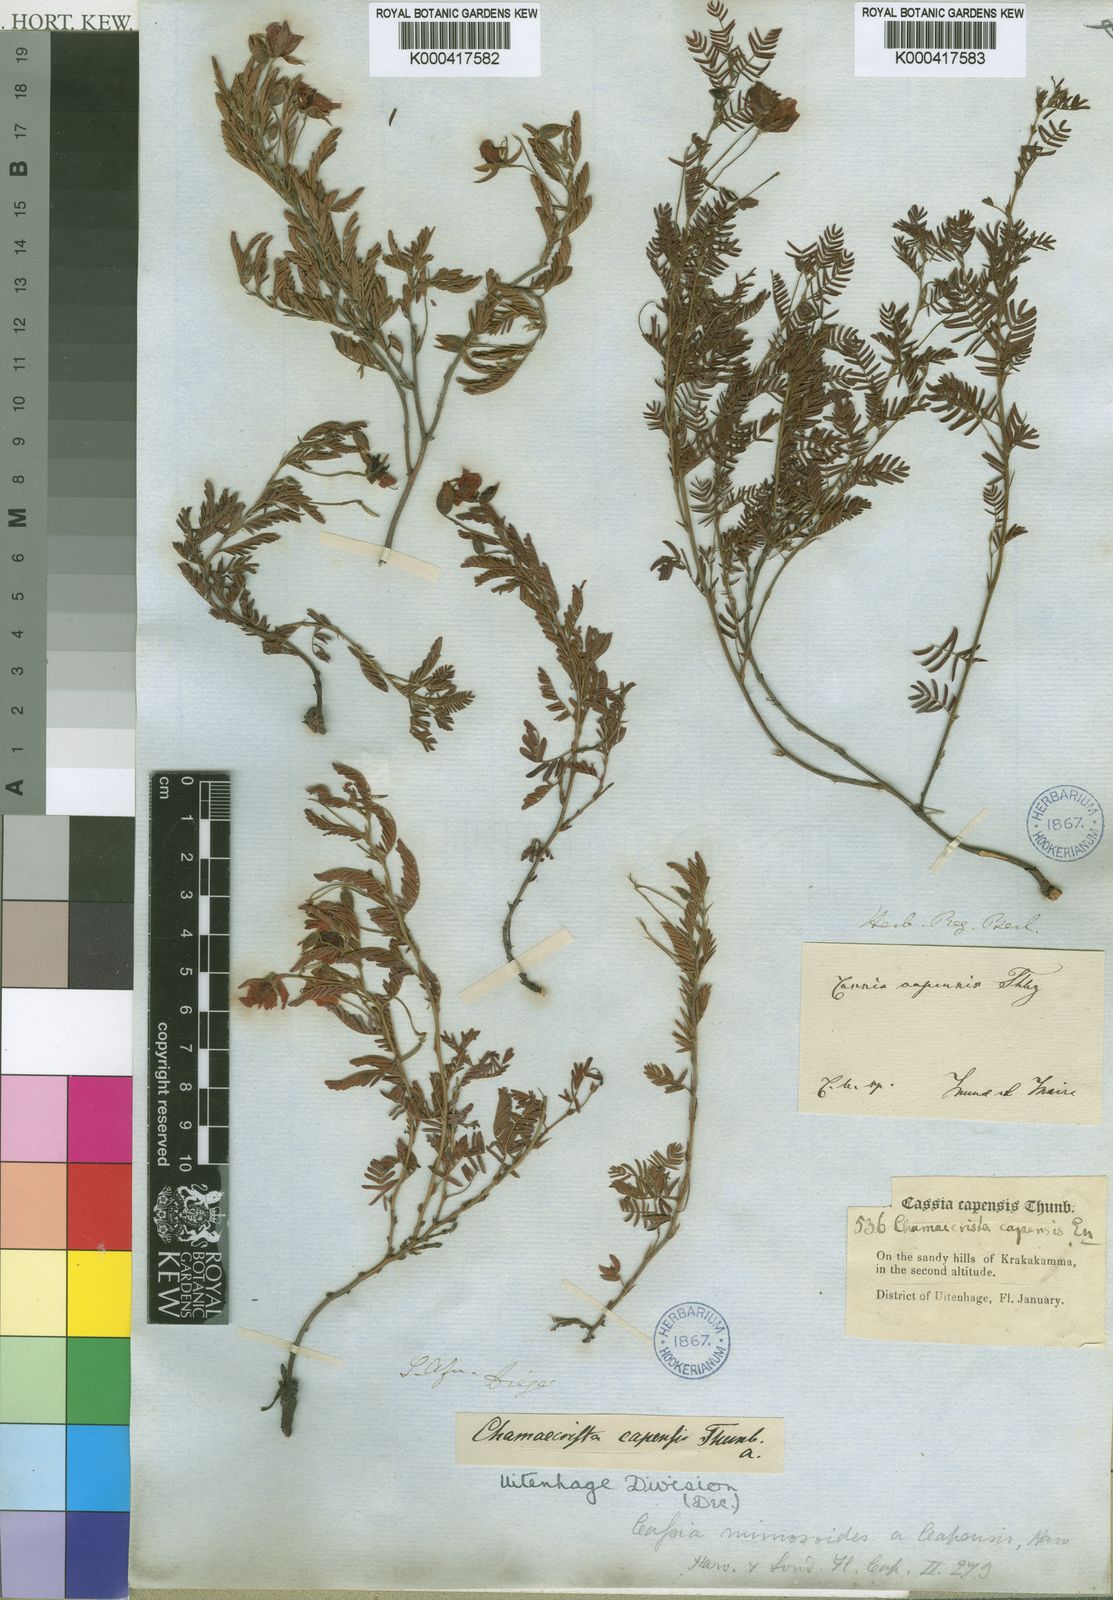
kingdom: Plantae
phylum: Tracheophyta
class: Magnoliopsida
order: Fabales
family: Fabaceae
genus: Chamaecrista
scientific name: Chamaecrista capensis
